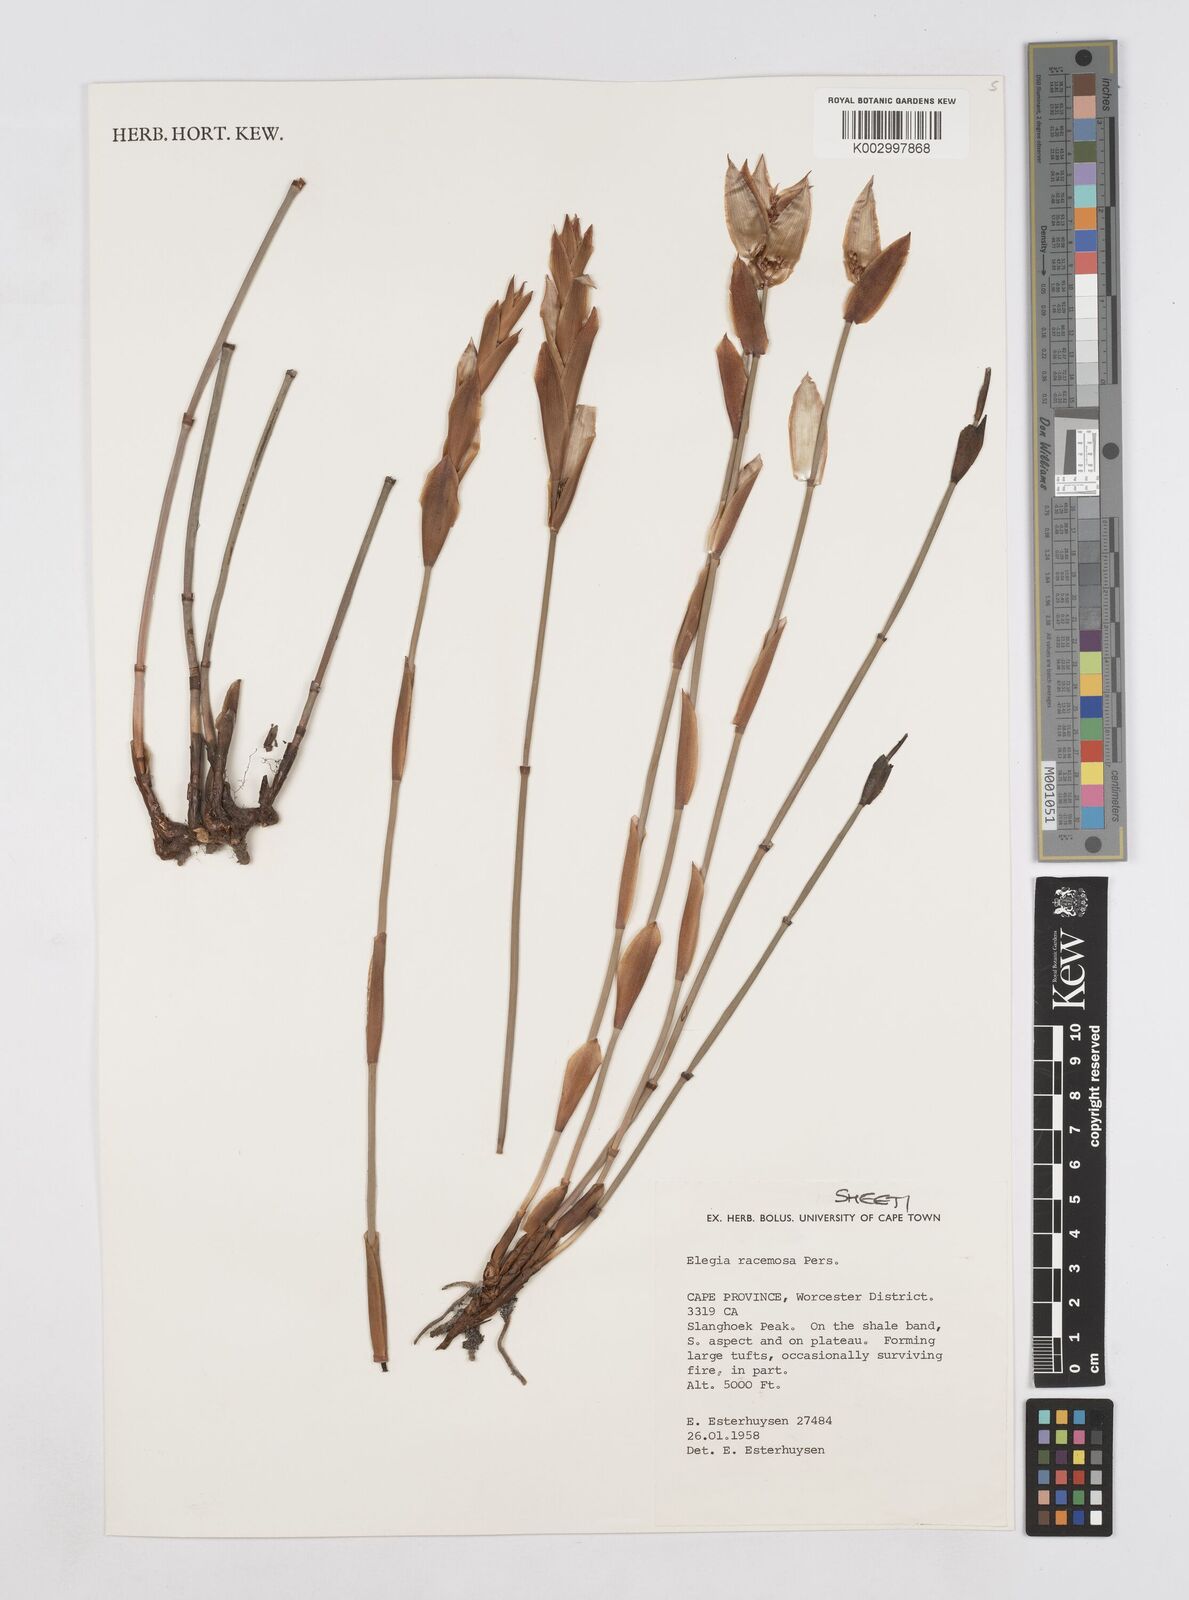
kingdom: Plantae
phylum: Tracheophyta
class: Liliopsida
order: Poales
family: Restionaceae
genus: Elegia
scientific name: Elegia racemosa
